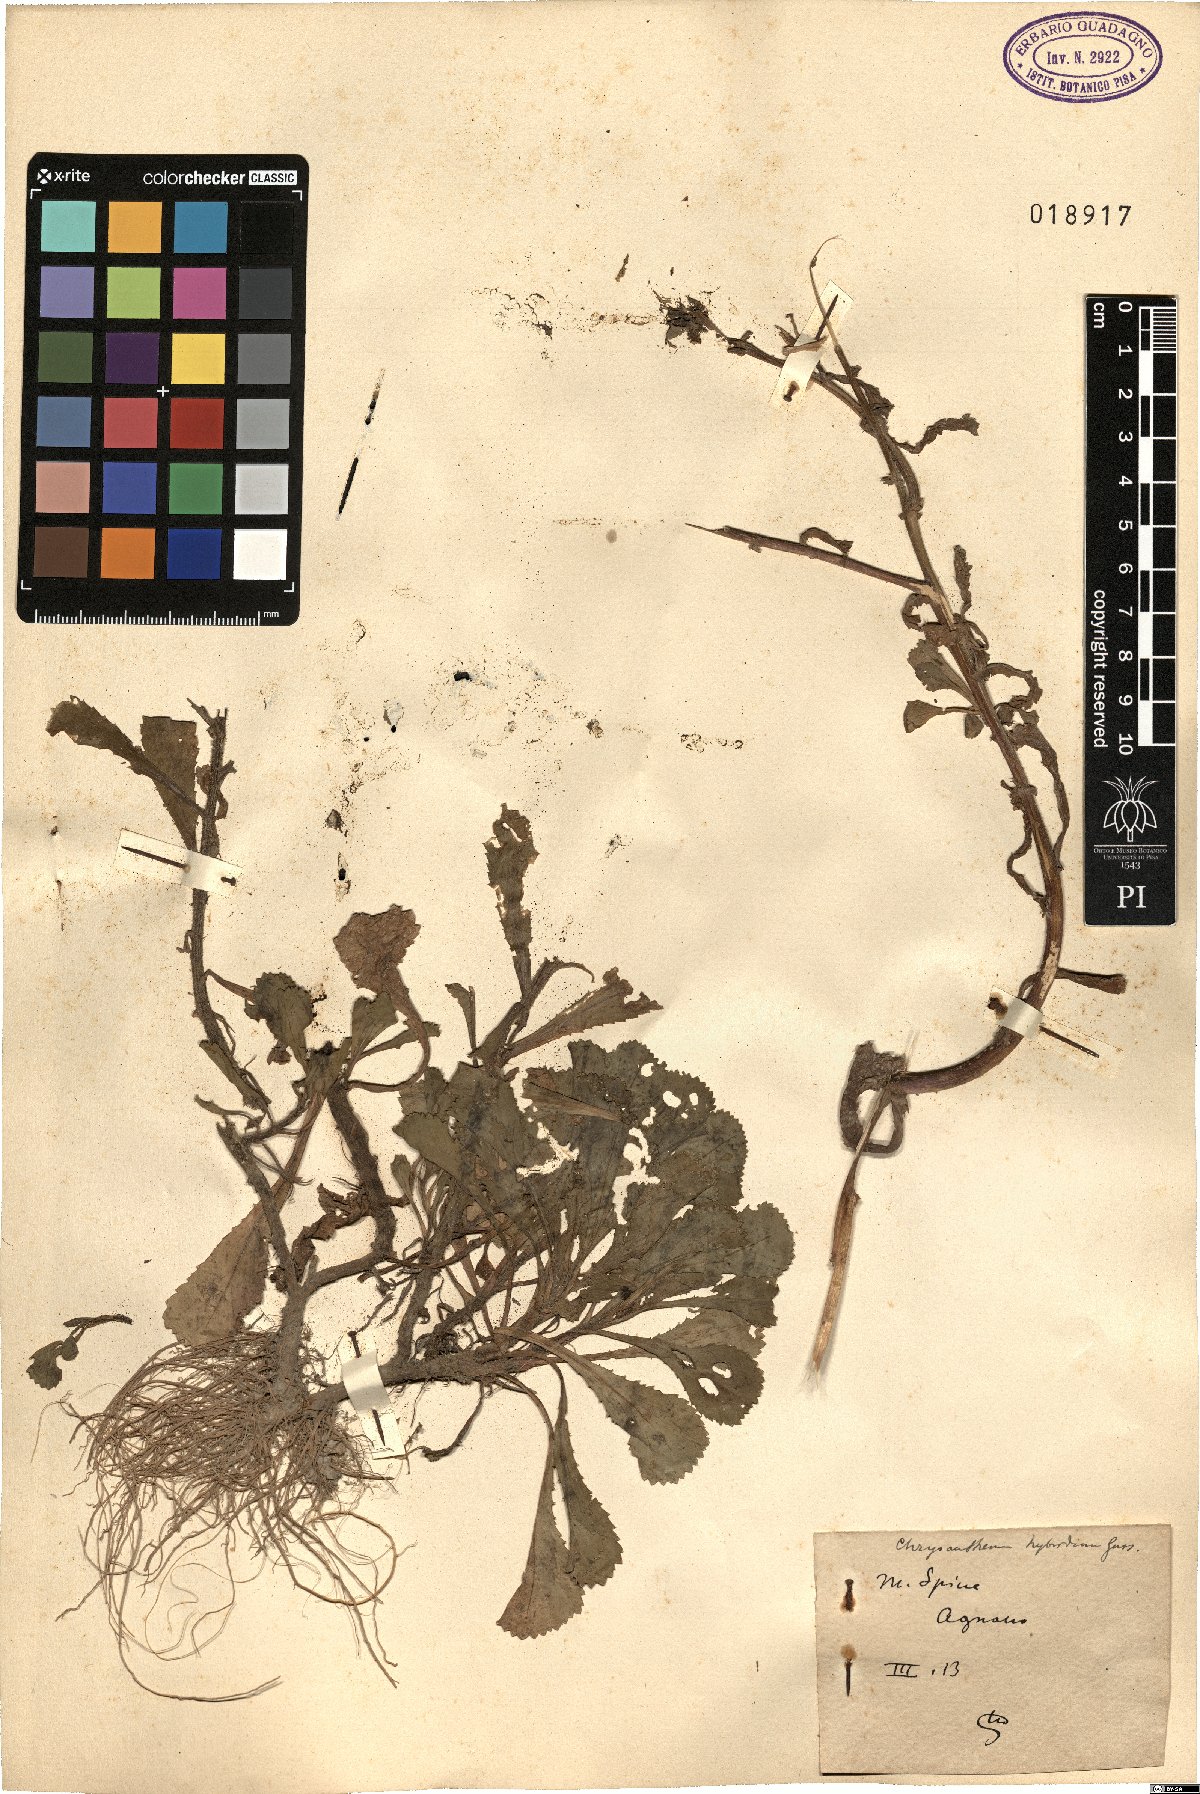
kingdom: Plantae
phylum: Tracheophyta
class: Magnoliopsida
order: Asterales
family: Asteraceae
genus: Coleostephus
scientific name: Coleostephus myconis
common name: Mediterranean marigold
